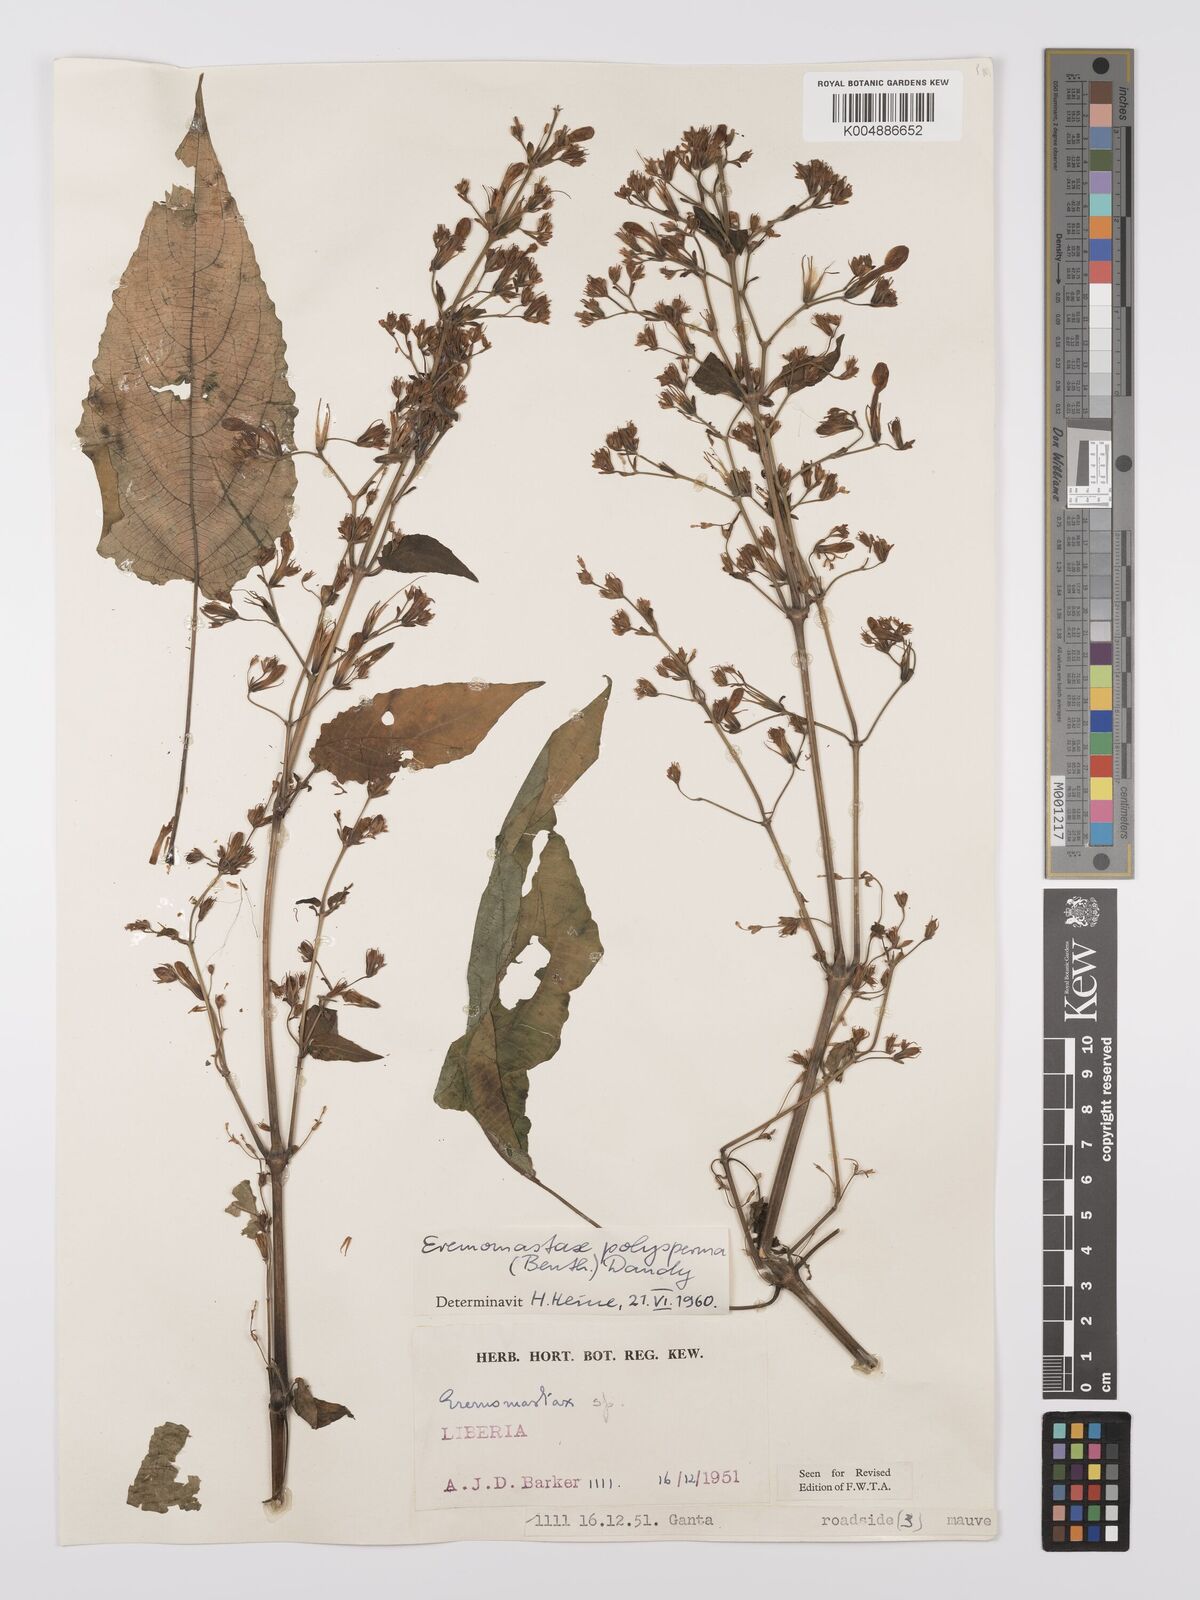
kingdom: Plantae
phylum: Tracheophyta
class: Magnoliopsida
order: Lamiales
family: Acanthaceae
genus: Eremomastax
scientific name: Eremomastax speciosa
